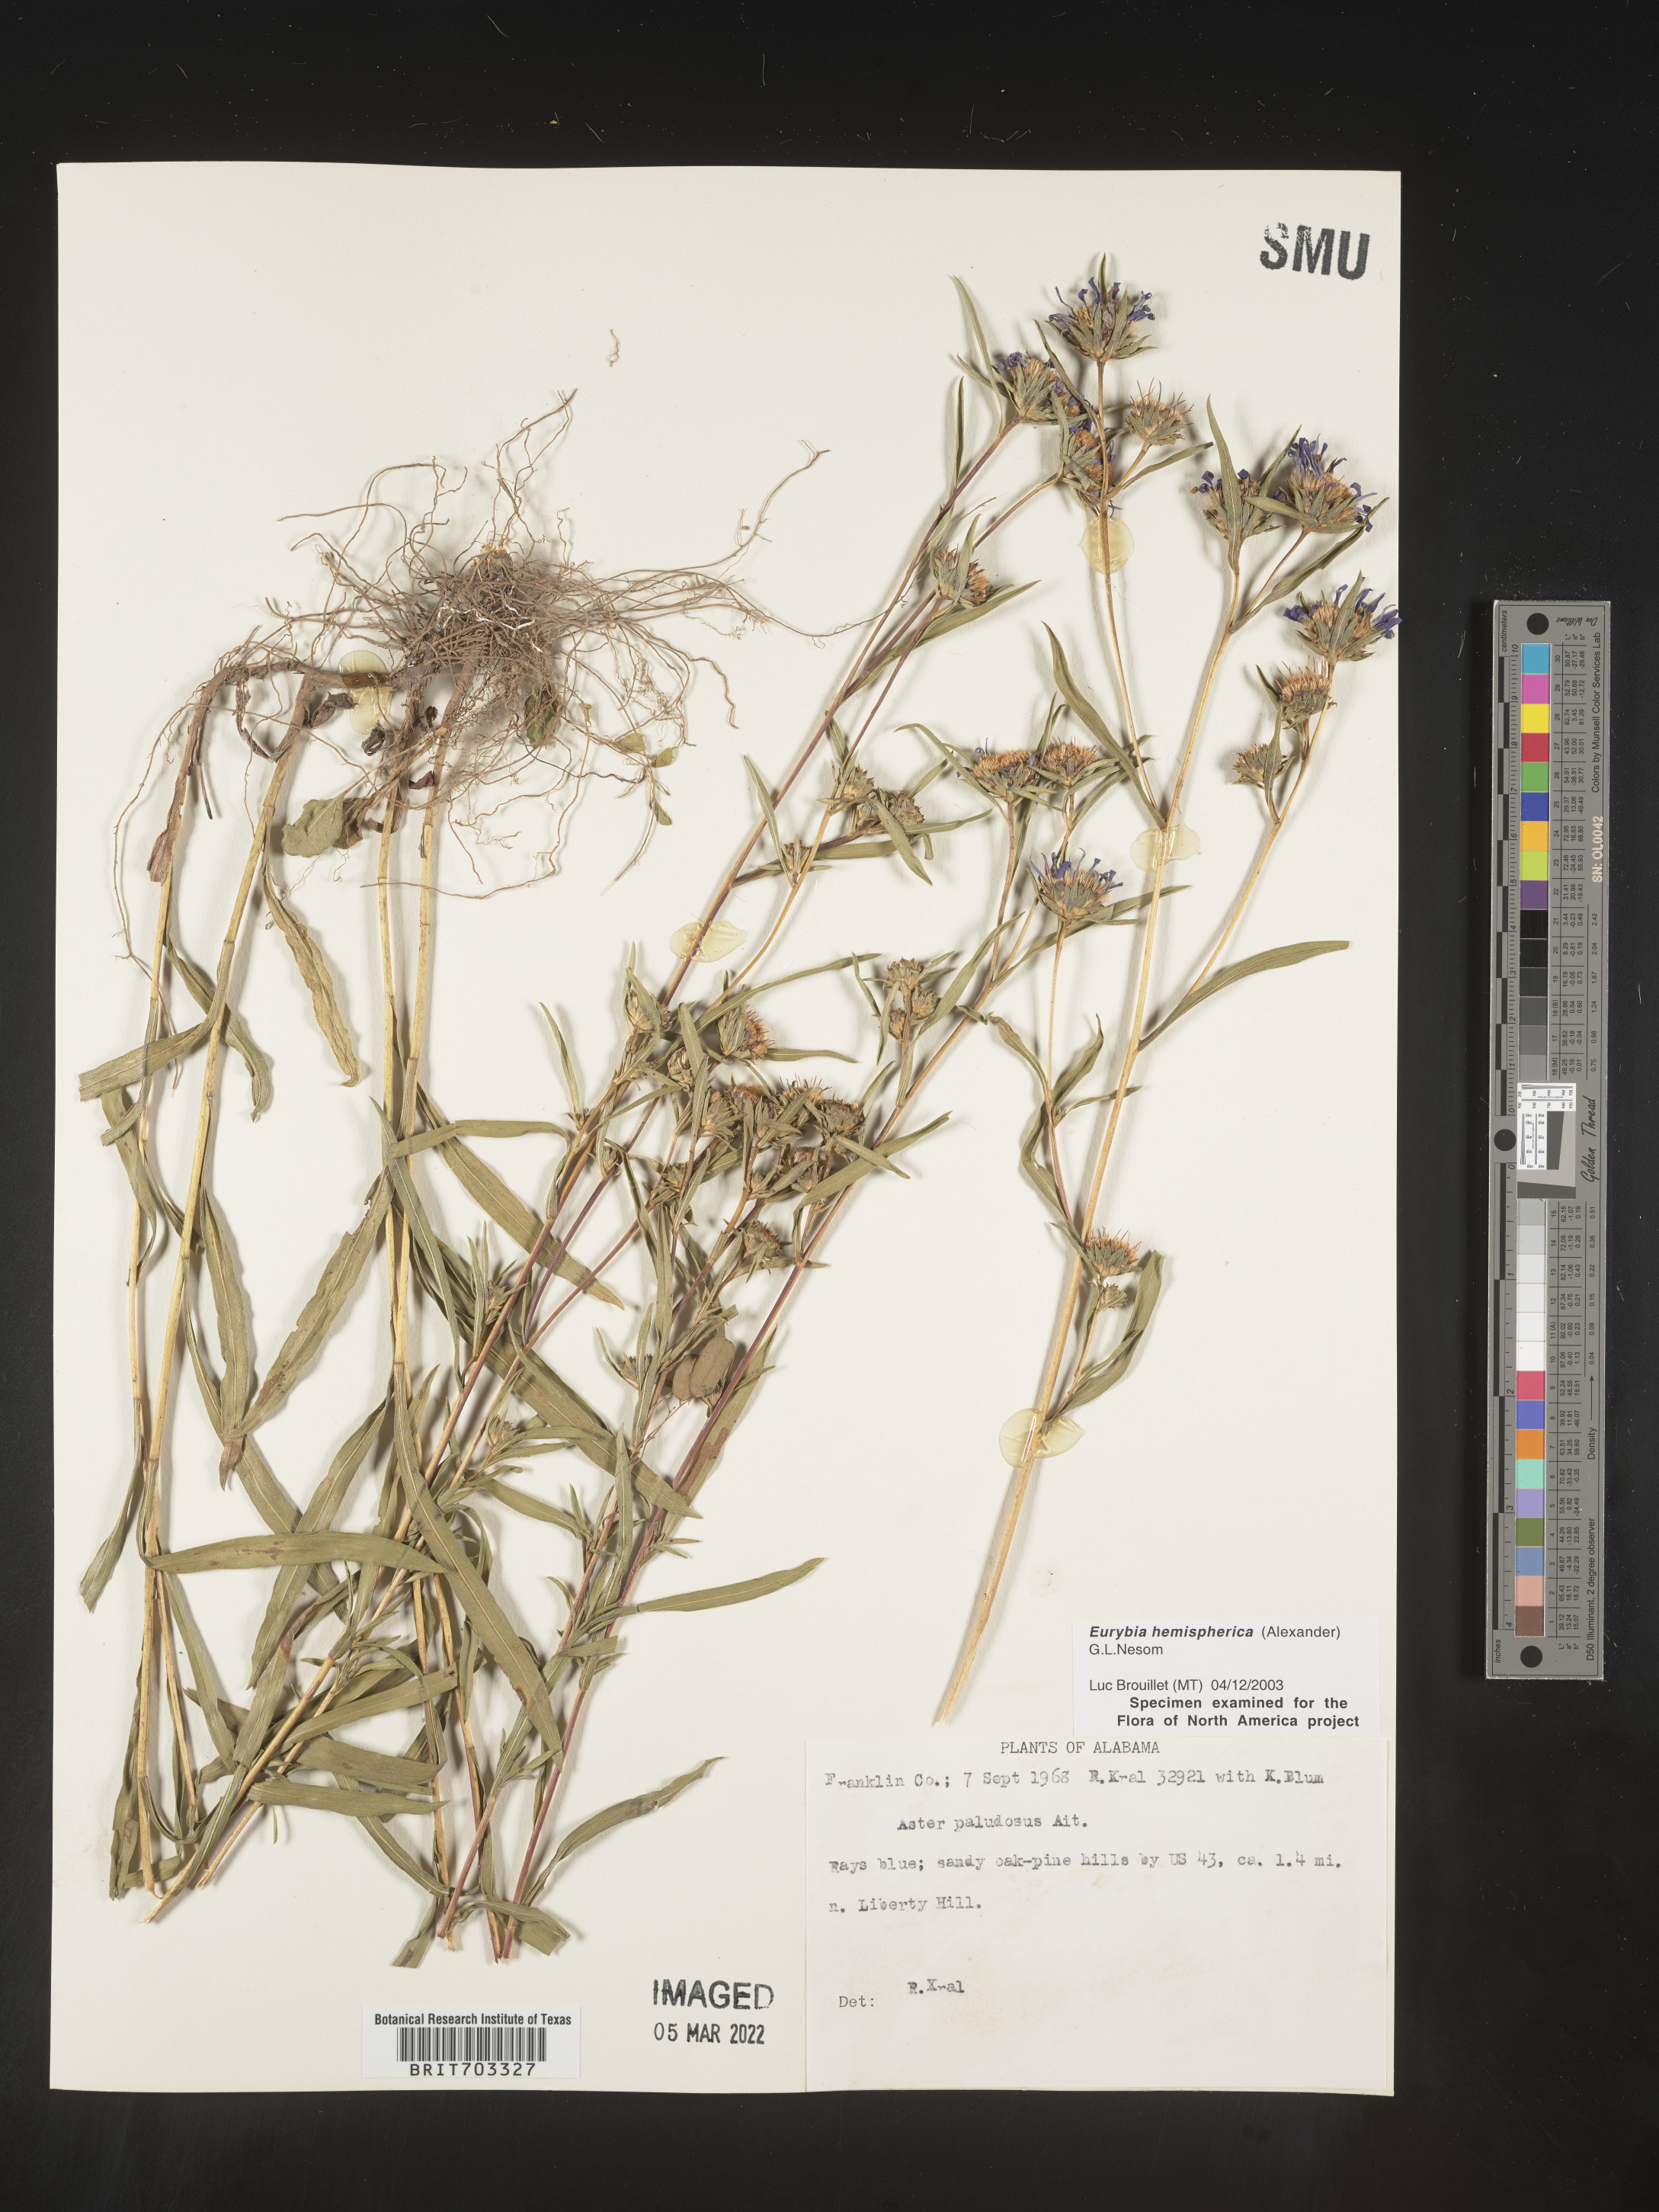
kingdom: Plantae
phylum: Tracheophyta
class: Magnoliopsida
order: Asterales
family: Asteraceae
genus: Eurybia
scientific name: Eurybia hemispherica
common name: Showy aster
